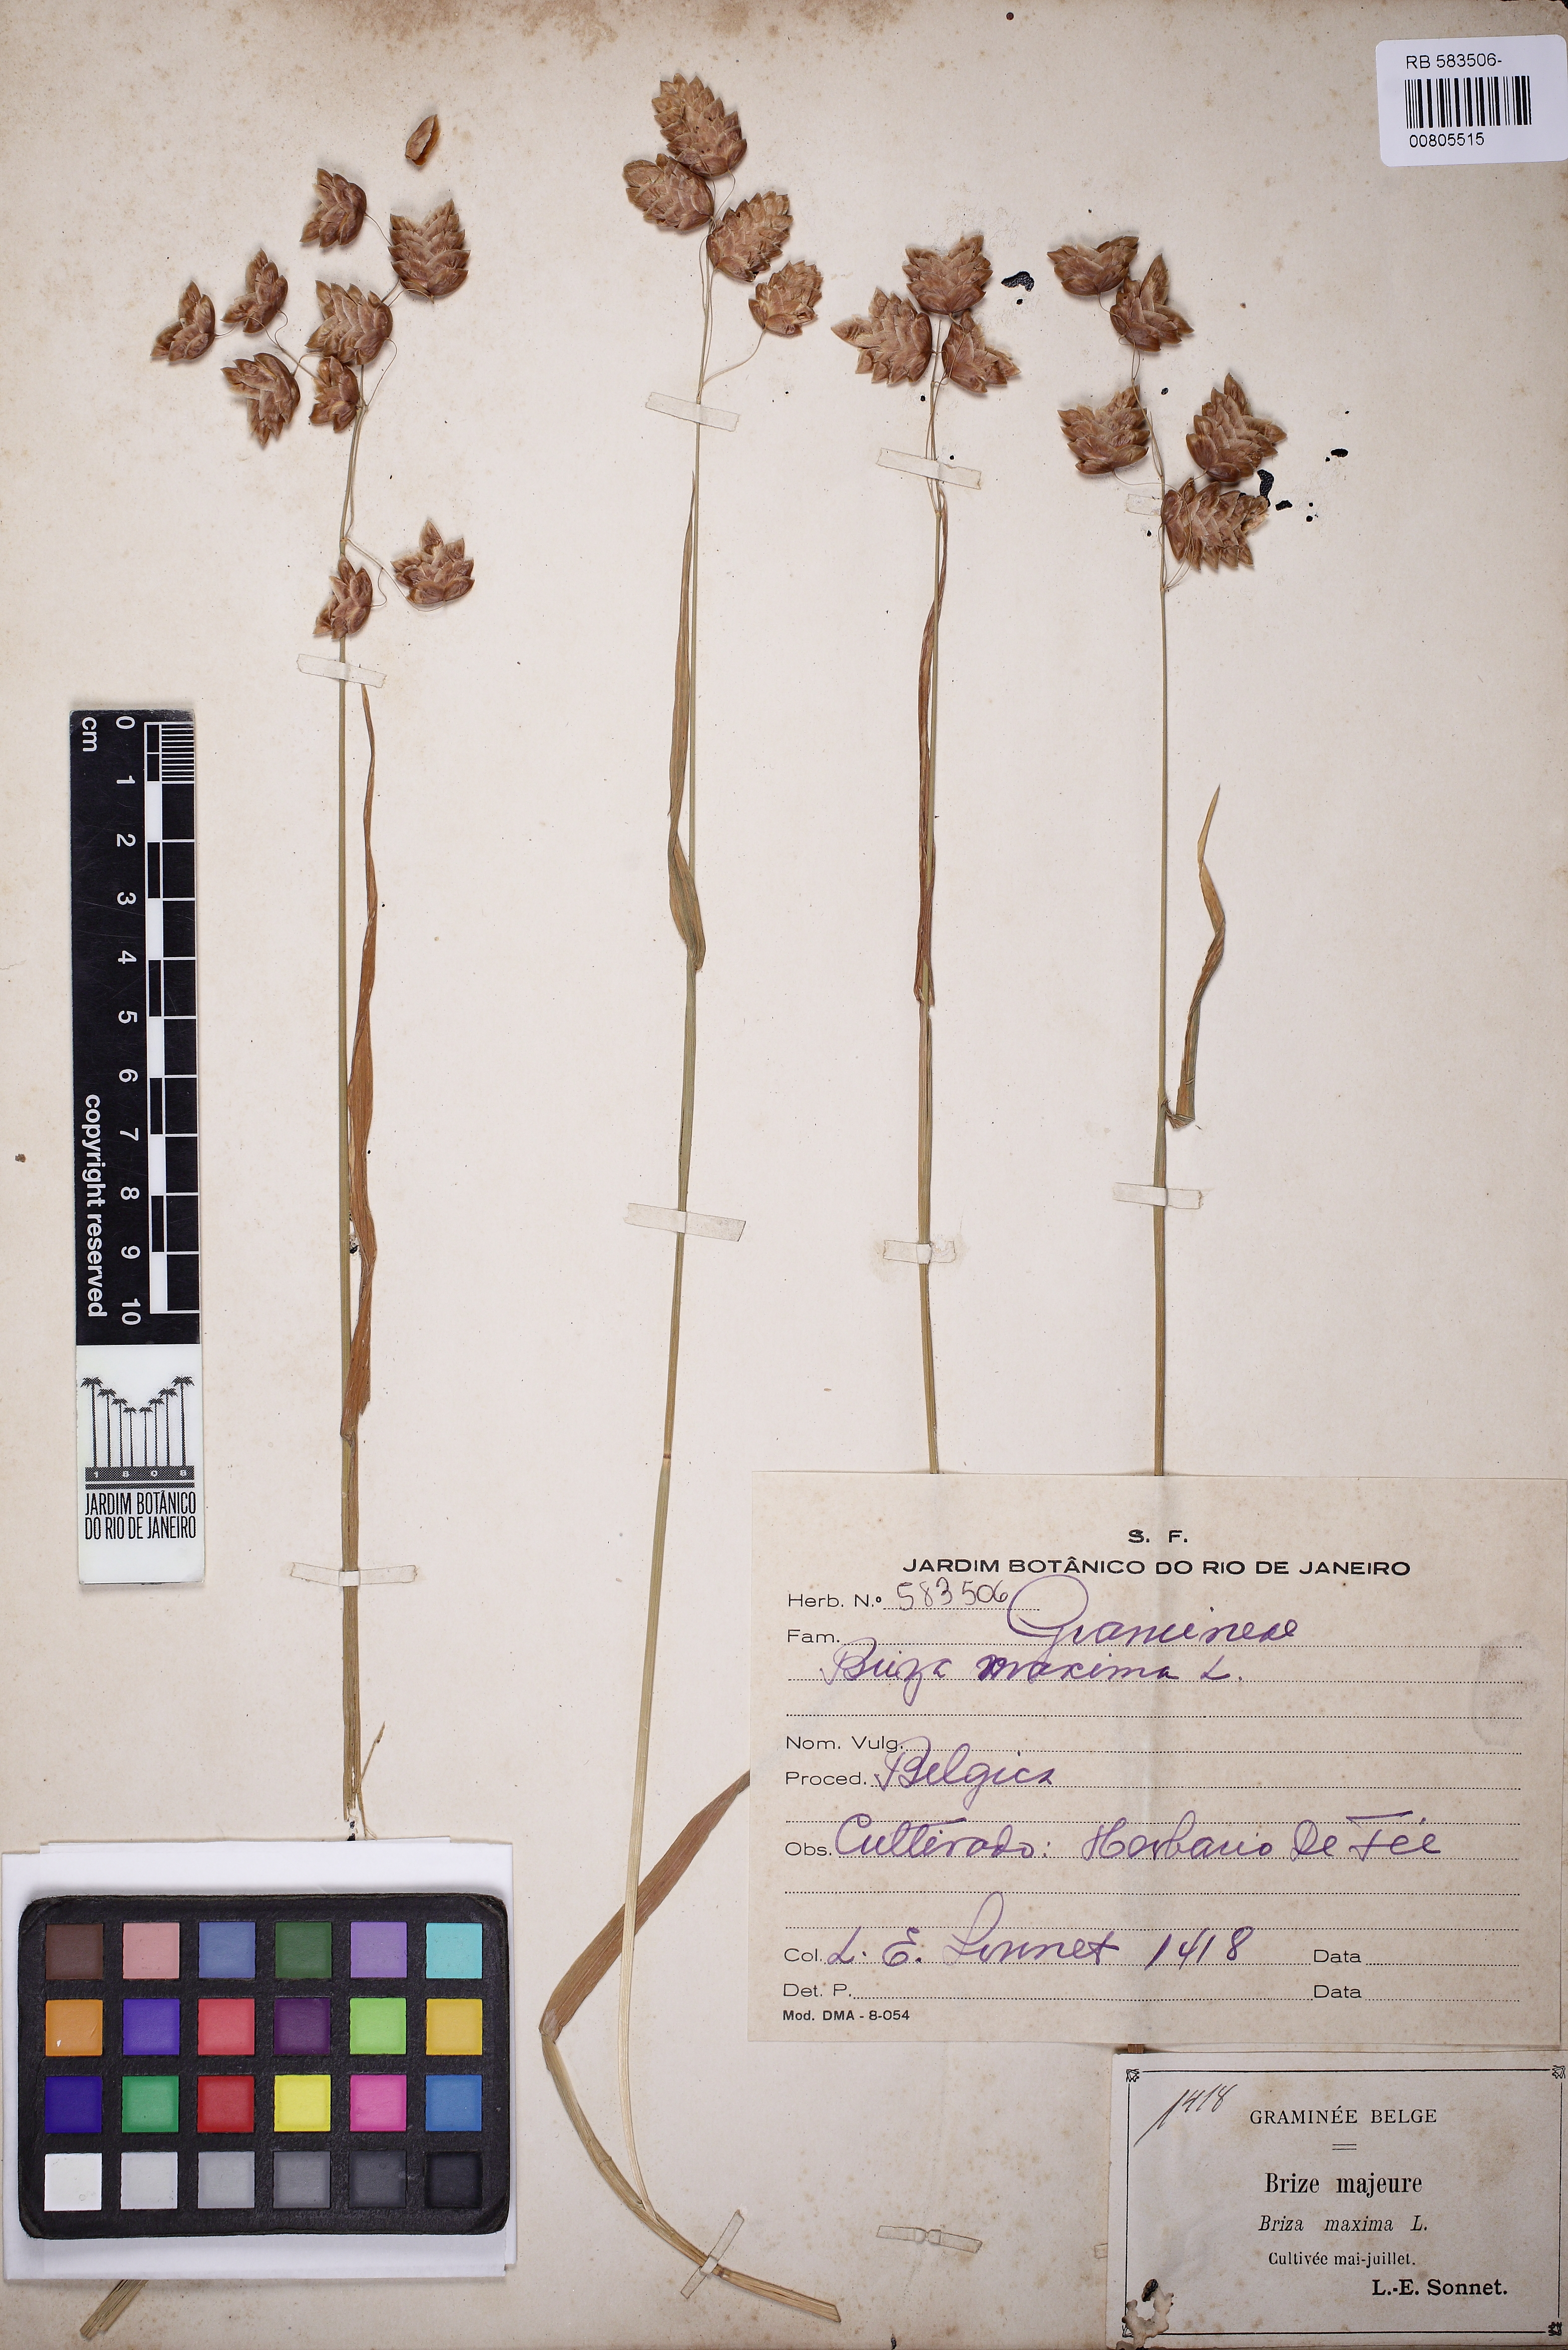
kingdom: Plantae
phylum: Tracheophyta
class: Liliopsida
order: Poales
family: Poaceae
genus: Briza
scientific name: Briza maxima
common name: Big quakinggrass
